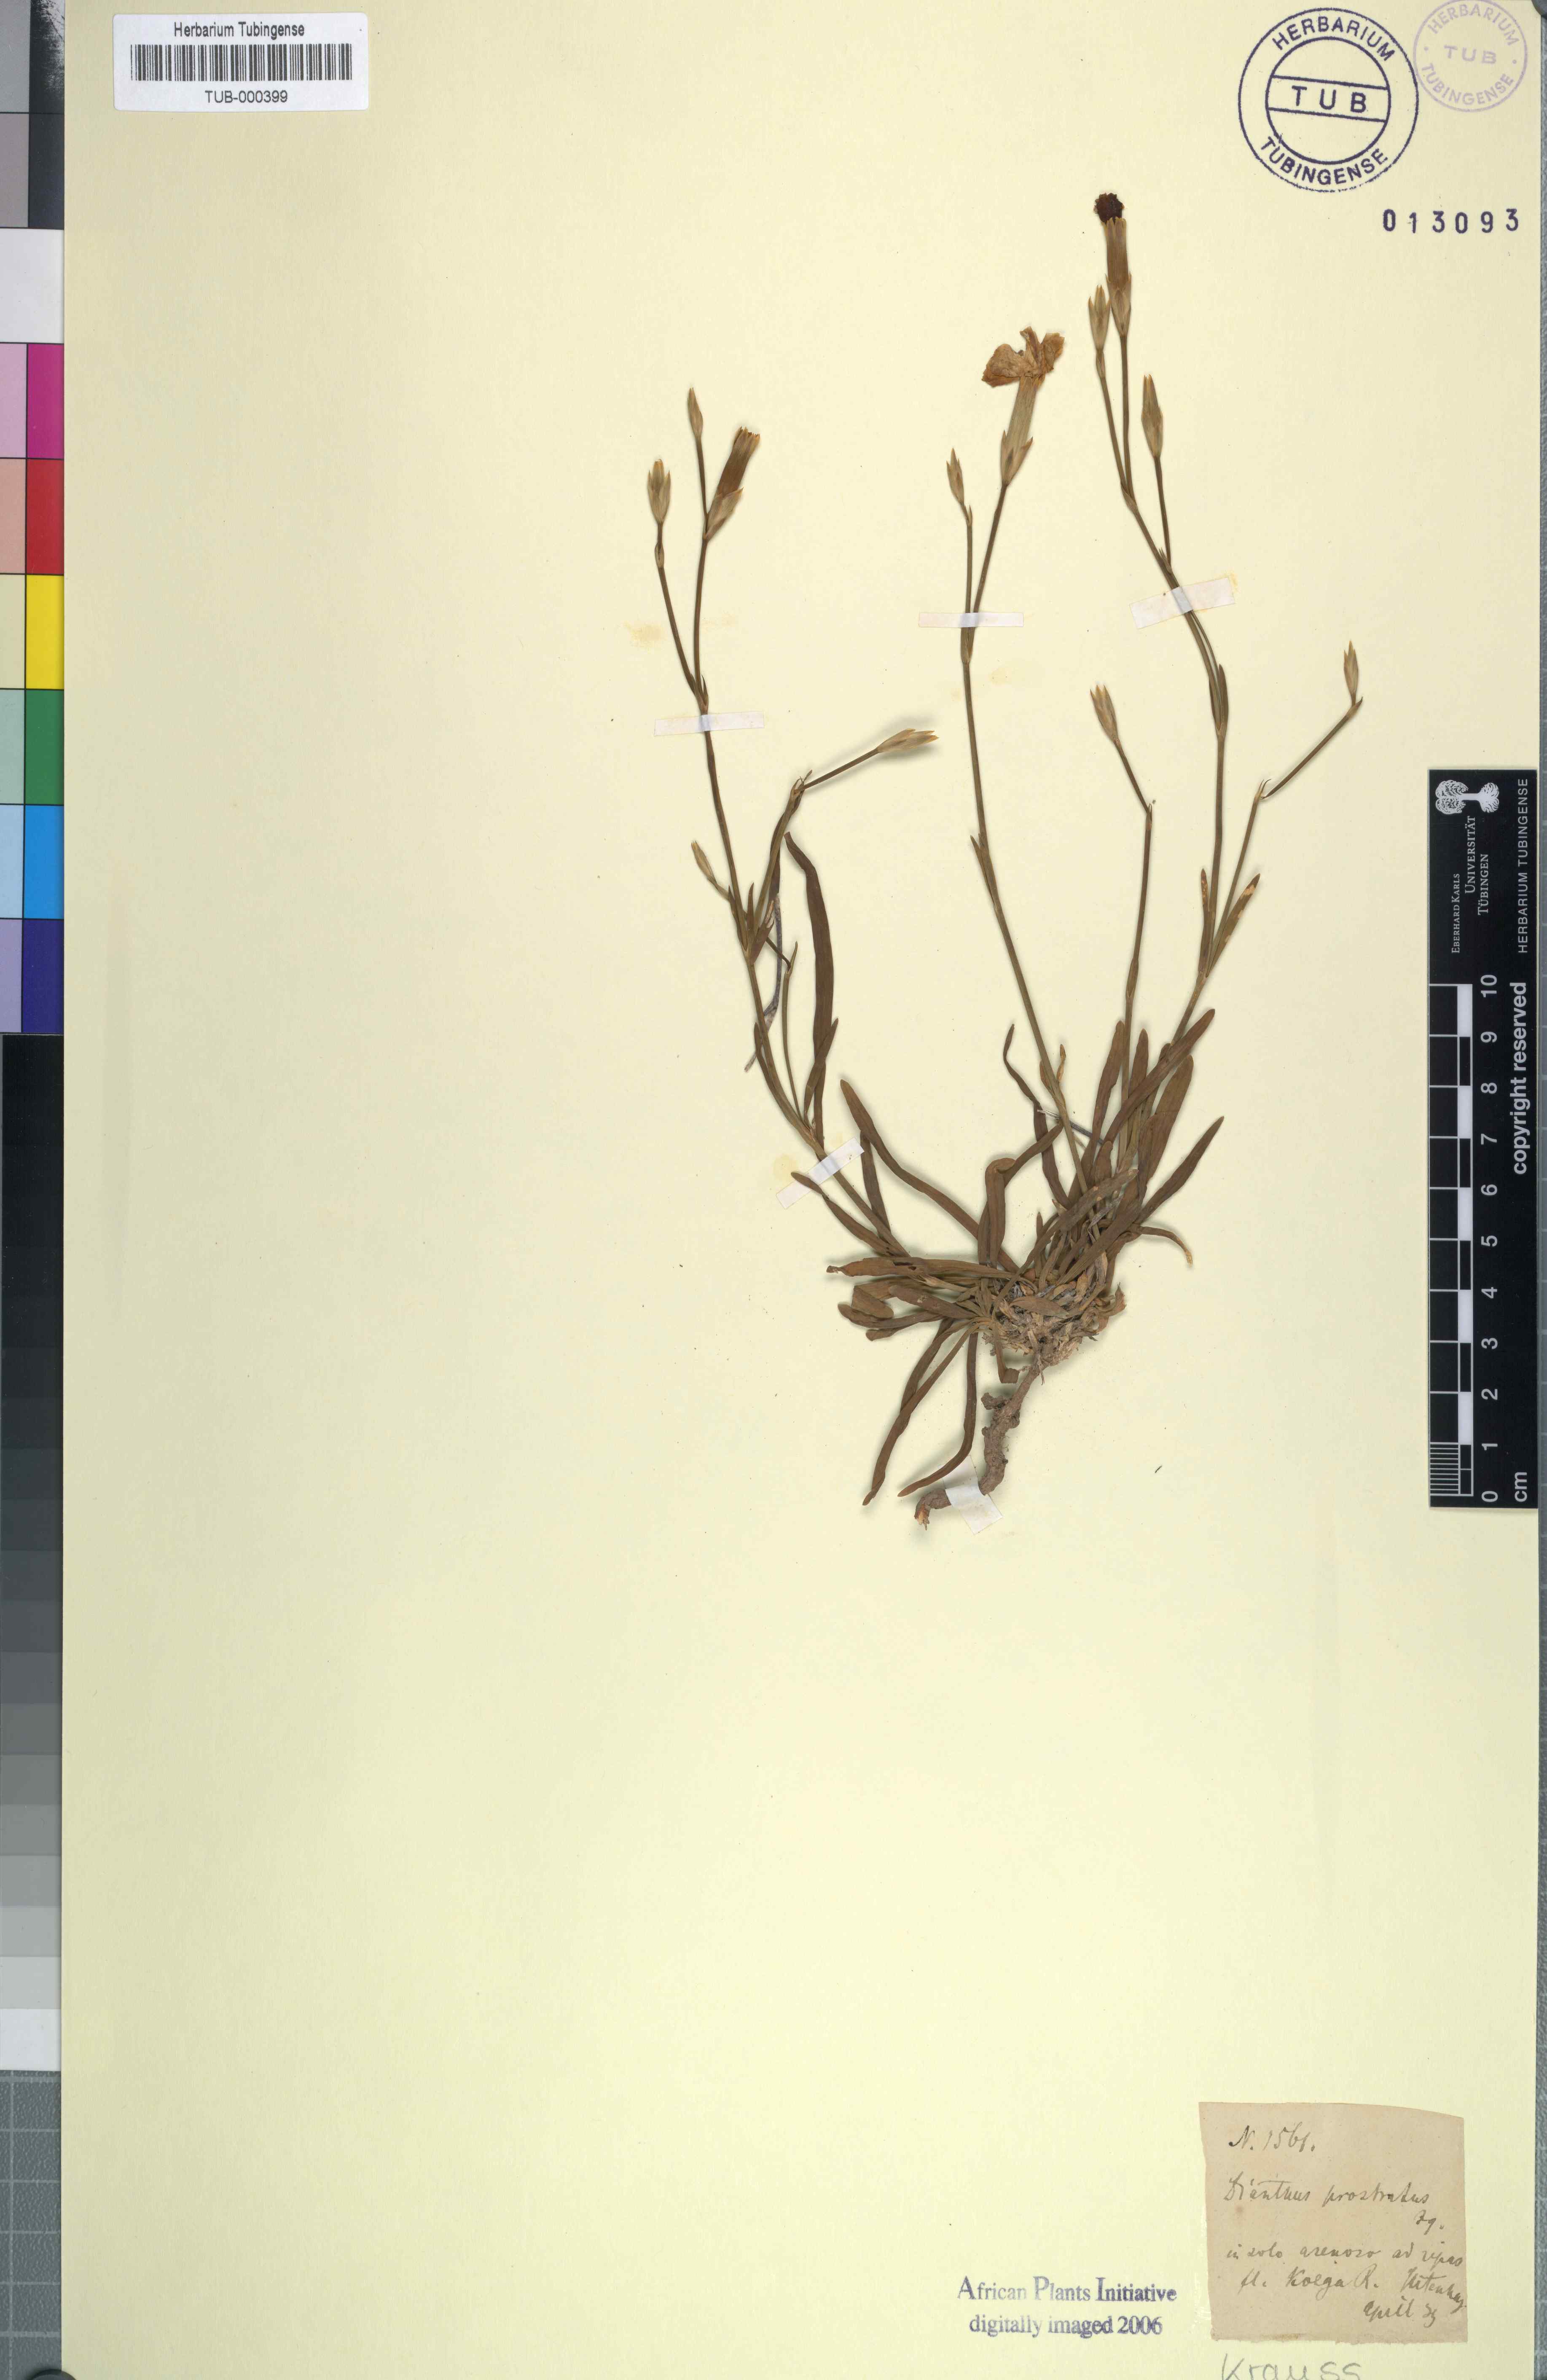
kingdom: Plantae
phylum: Tracheophyta
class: Magnoliopsida
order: Caryophyllales
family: Caryophyllaceae
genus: Dianthus
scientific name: Dianthus caespitosus
